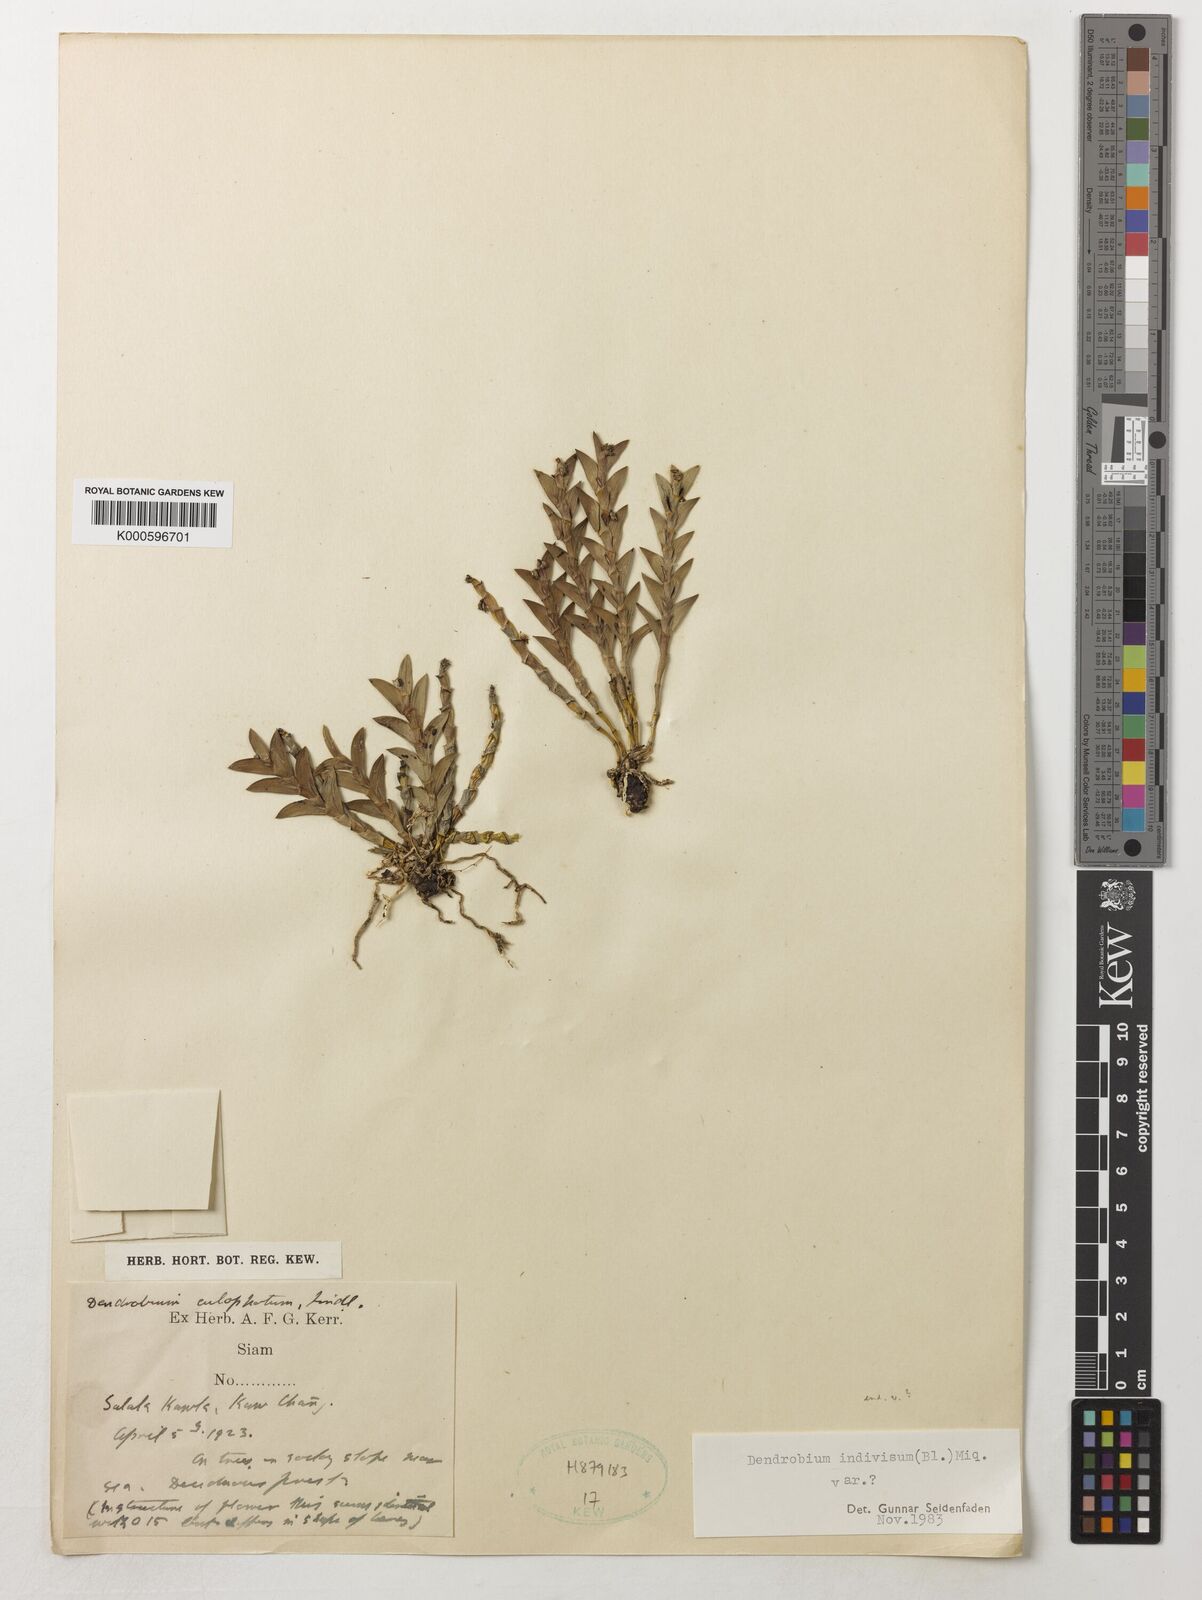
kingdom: Plantae
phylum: Tracheophyta
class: Liliopsida
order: Asparagales
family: Orchidaceae
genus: Dendrobium
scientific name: Dendrobium indivisum
